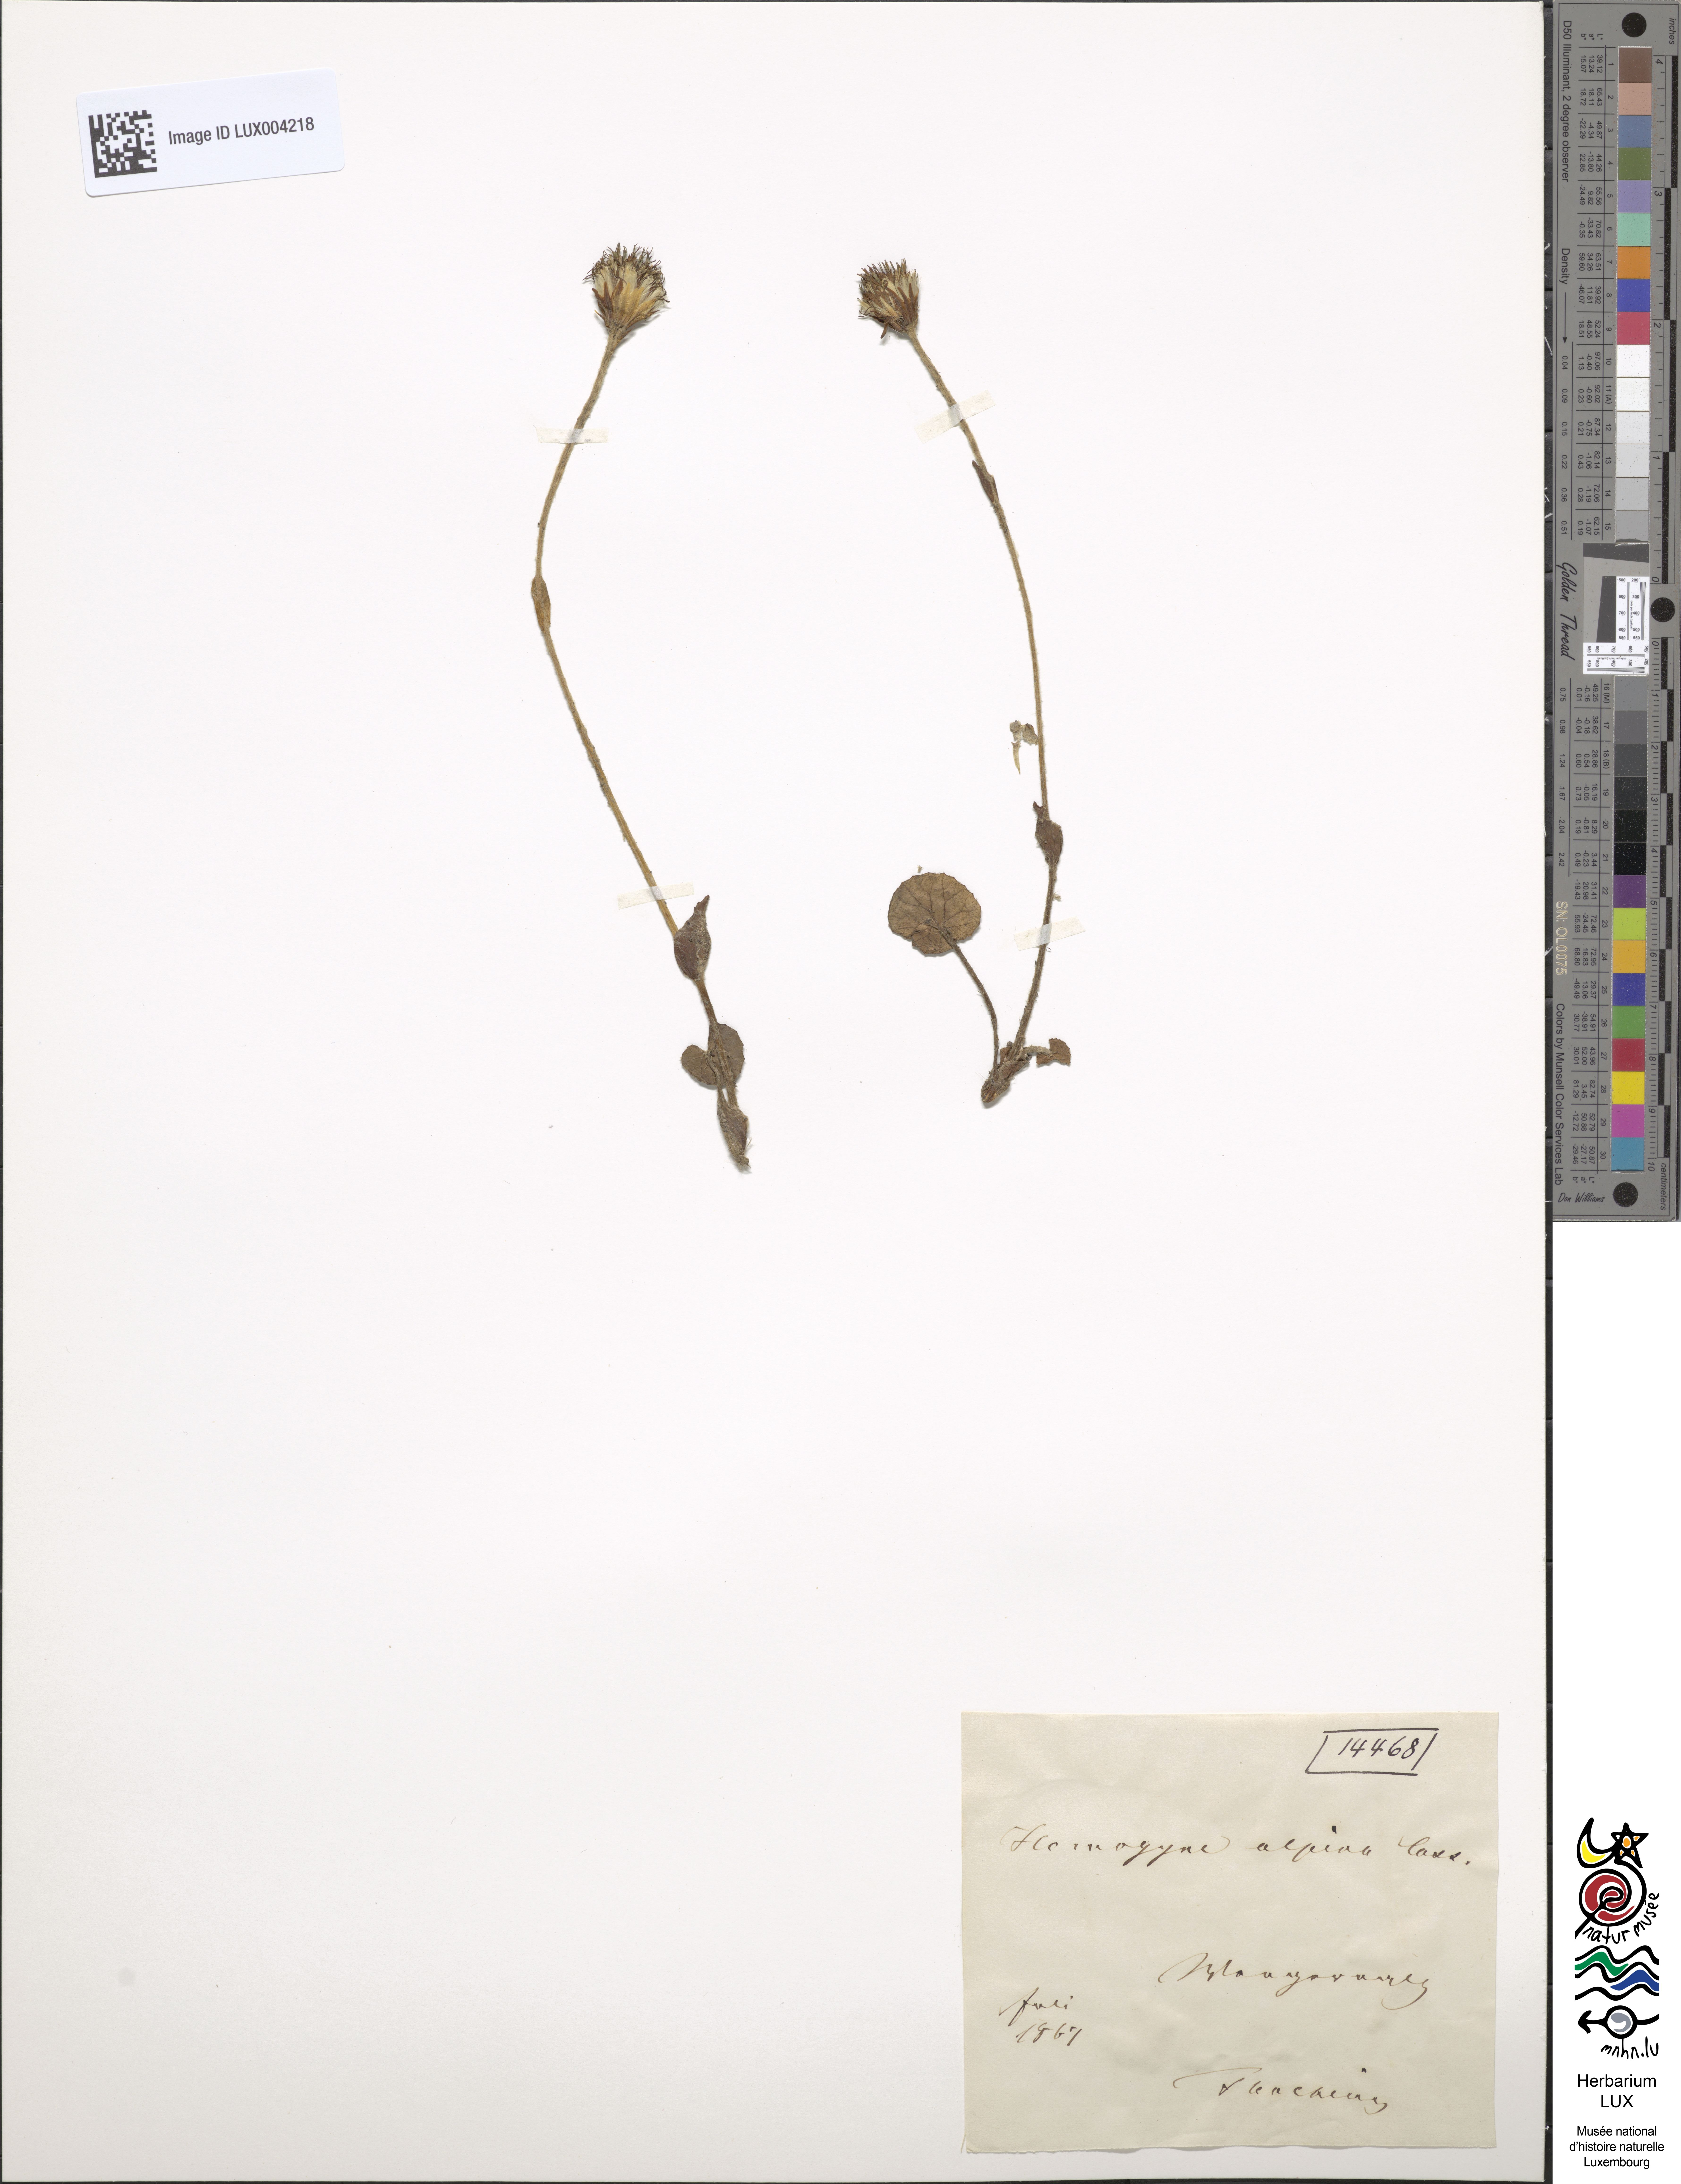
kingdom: Plantae
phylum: Tracheophyta
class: Magnoliopsida
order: Asterales
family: Asteraceae
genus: Homogyne
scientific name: Homogyne alpina
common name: Purple colt's-foot
